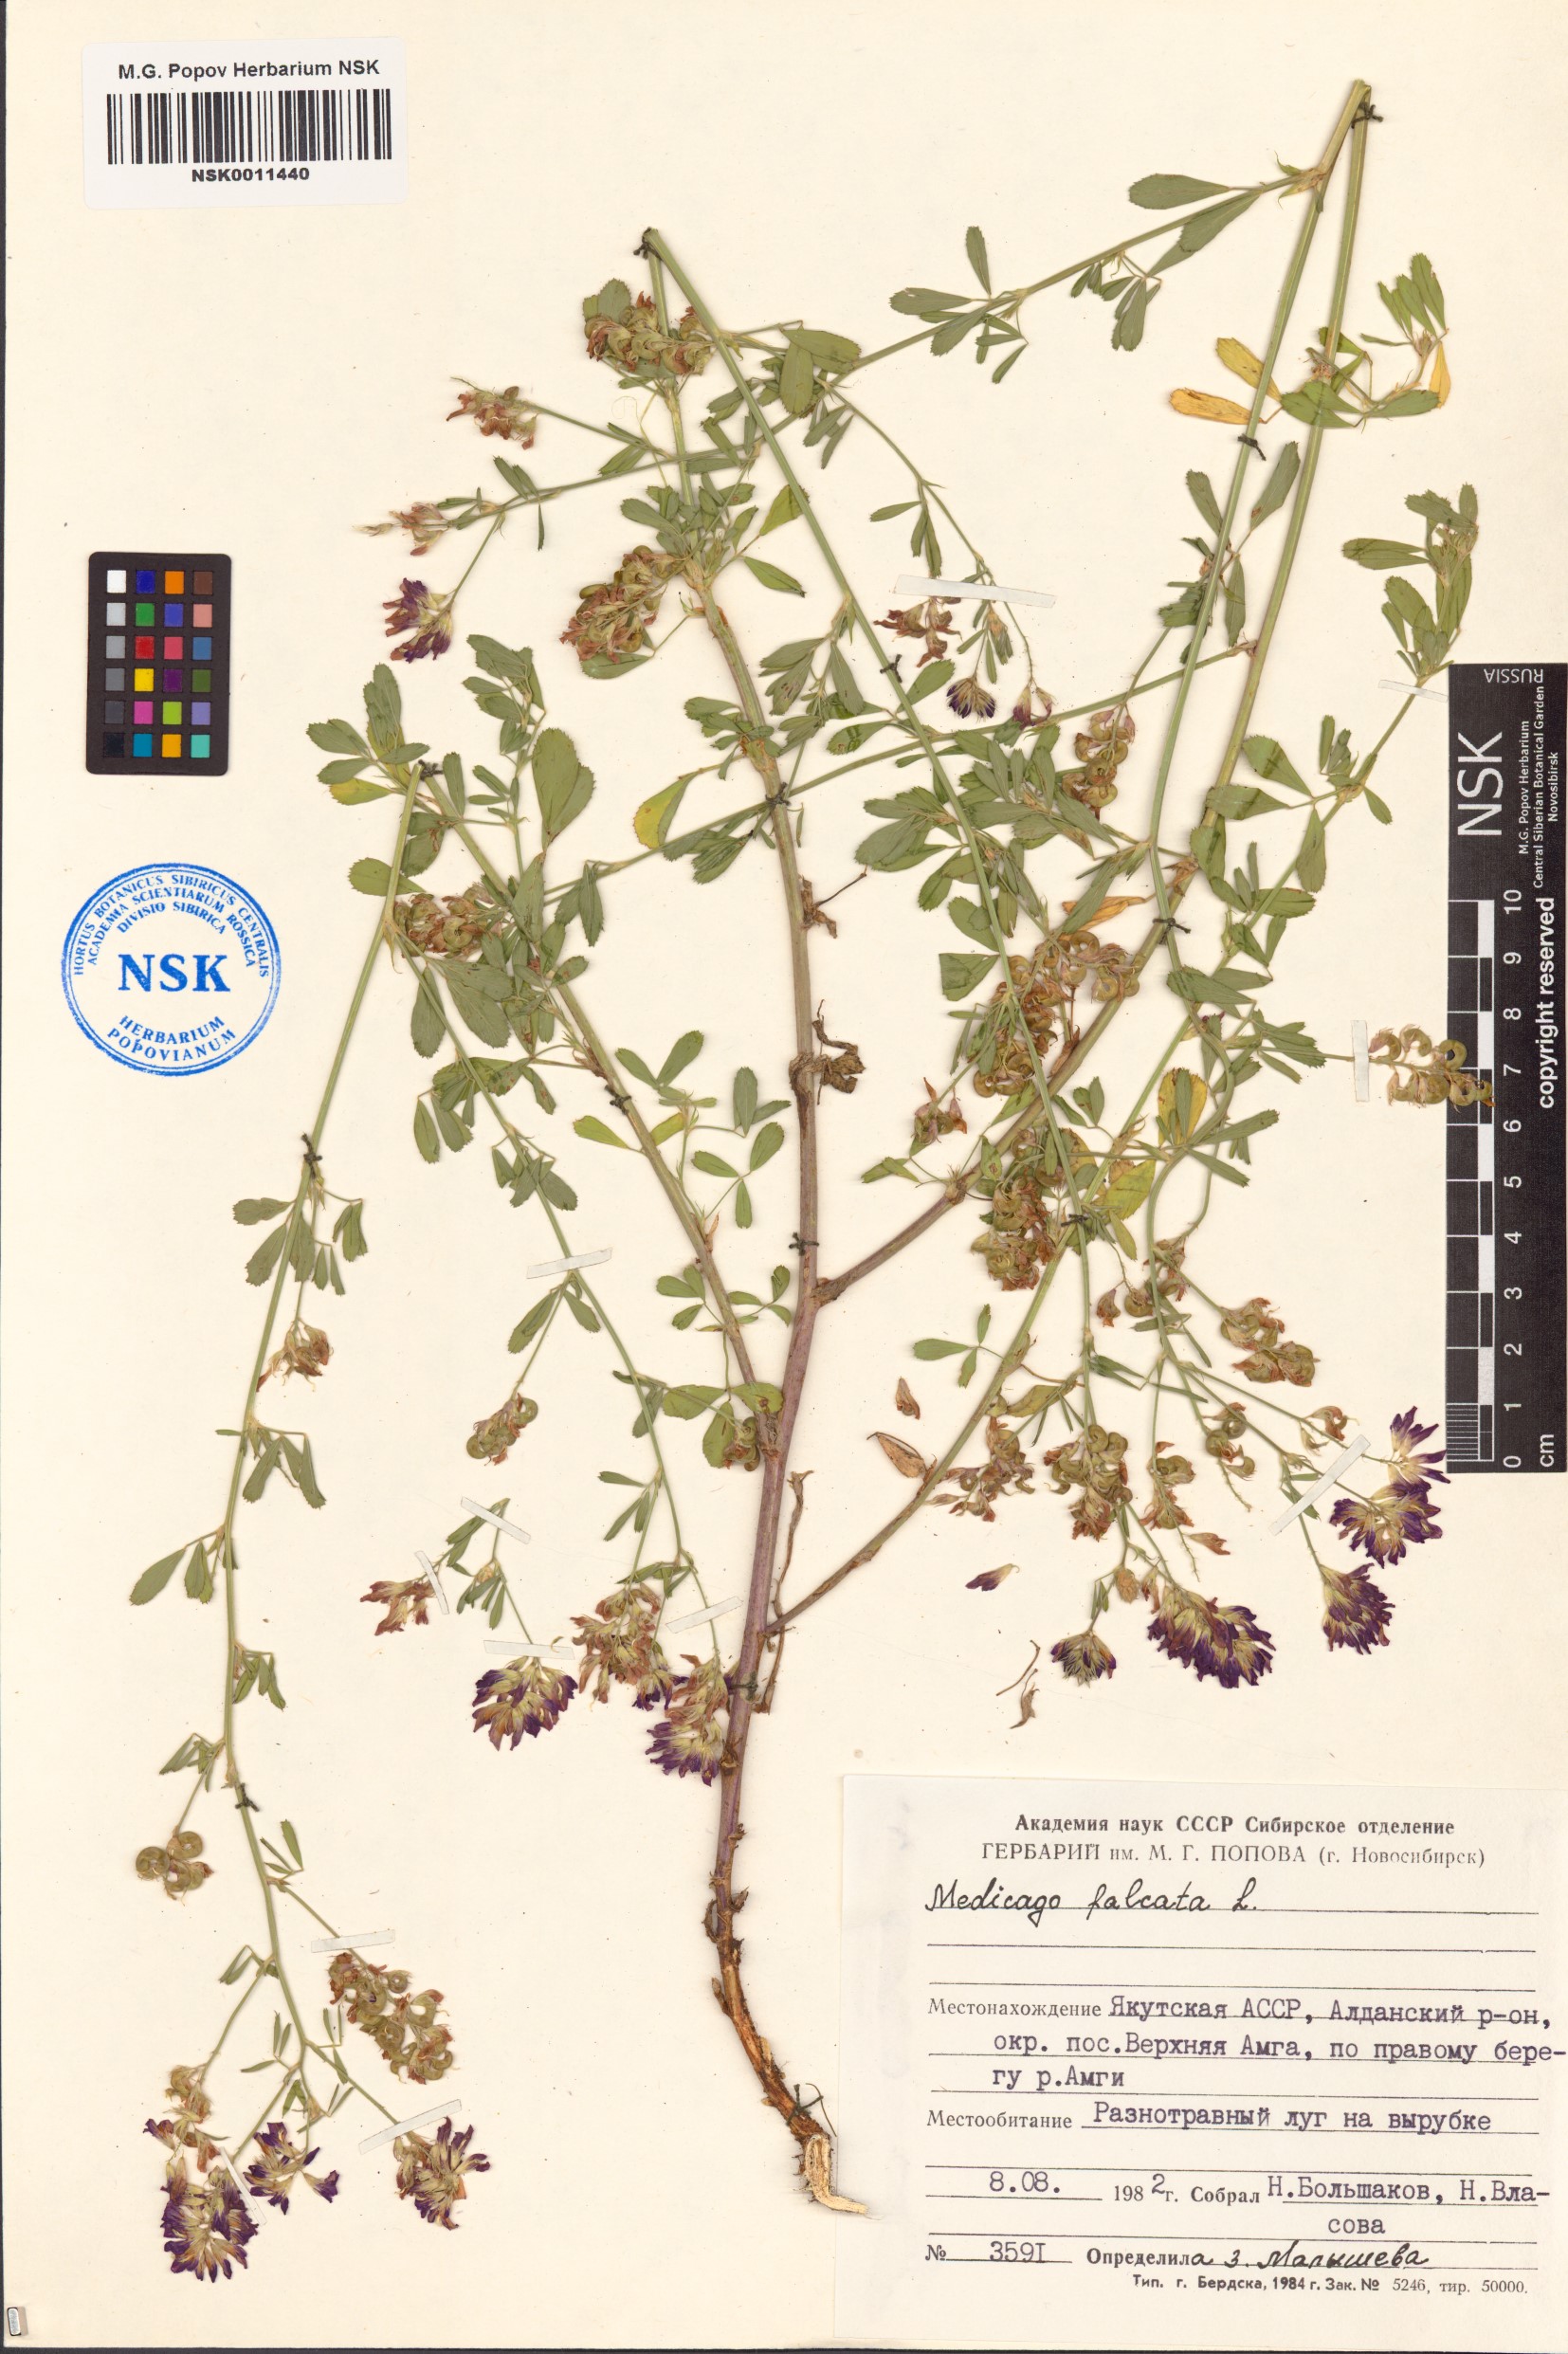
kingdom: Plantae
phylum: Tracheophyta
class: Magnoliopsida
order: Fabales
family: Fabaceae
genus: Medicago
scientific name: Medicago falcata
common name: Sickle medick
